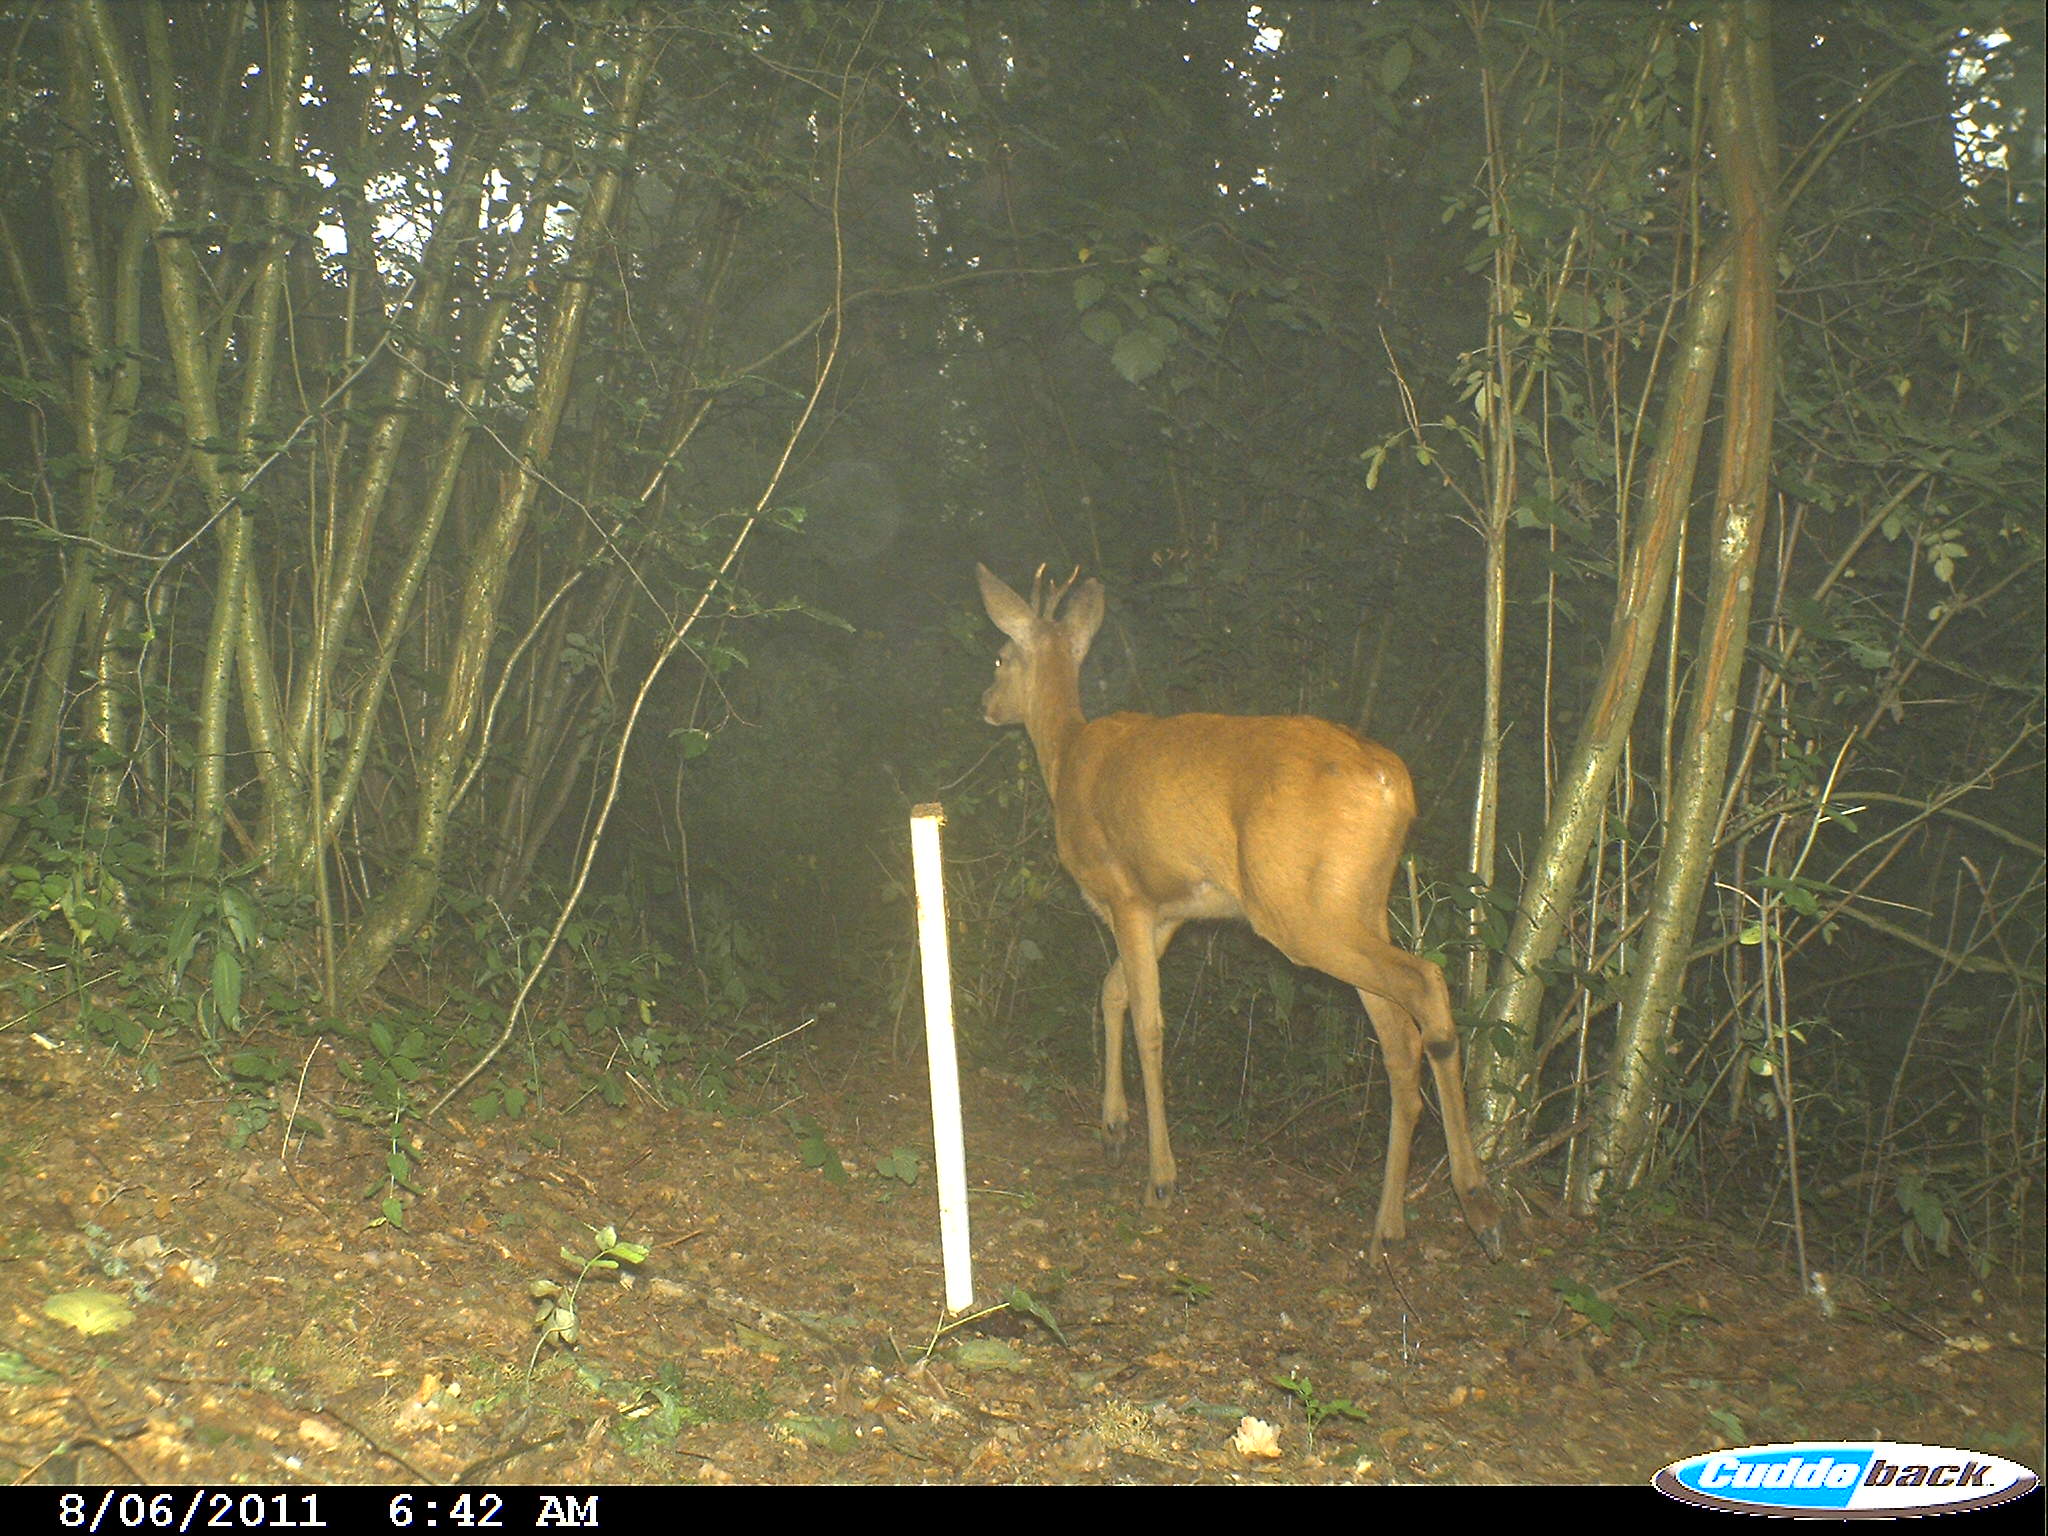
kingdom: Animalia
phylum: Chordata
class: Mammalia
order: Artiodactyla
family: Cervidae
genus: Capreolus
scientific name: Capreolus capreolus
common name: Western roe deer
